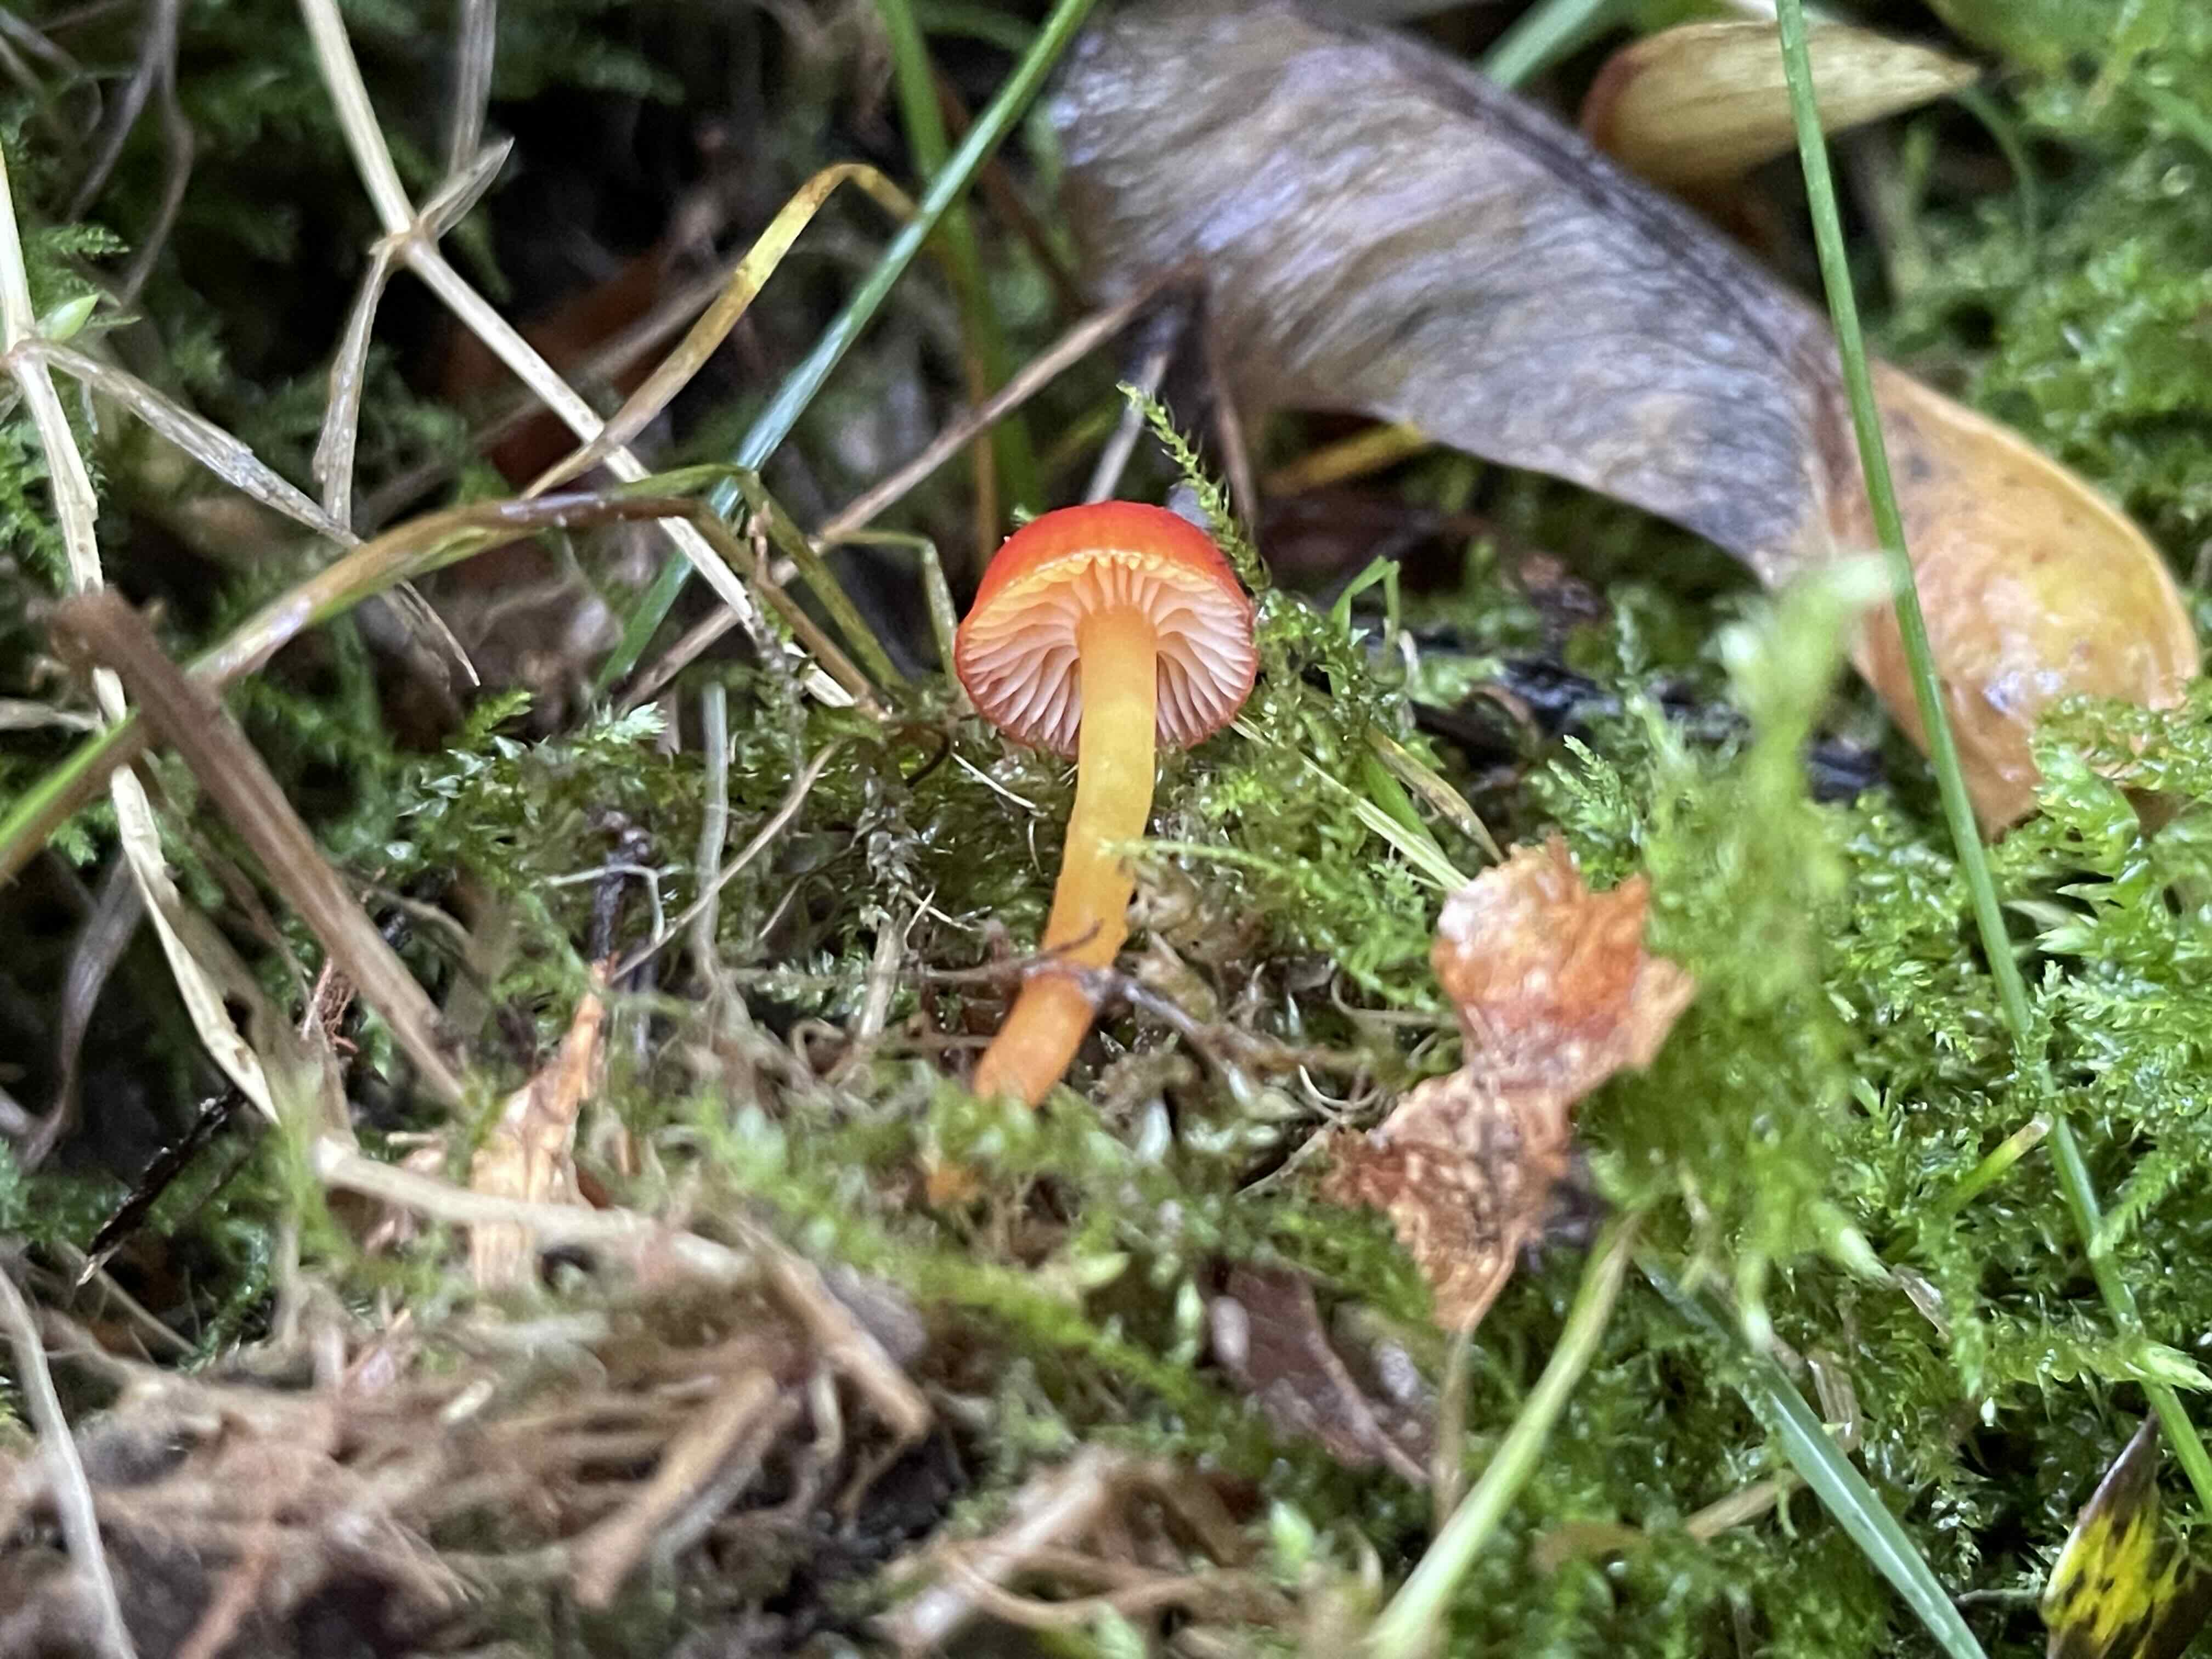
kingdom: Fungi
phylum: Basidiomycota
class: Agaricomycetes
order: Agaricales
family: Hygrophoraceae
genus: Hygrocybe
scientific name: Hygrocybe
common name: vokshat
